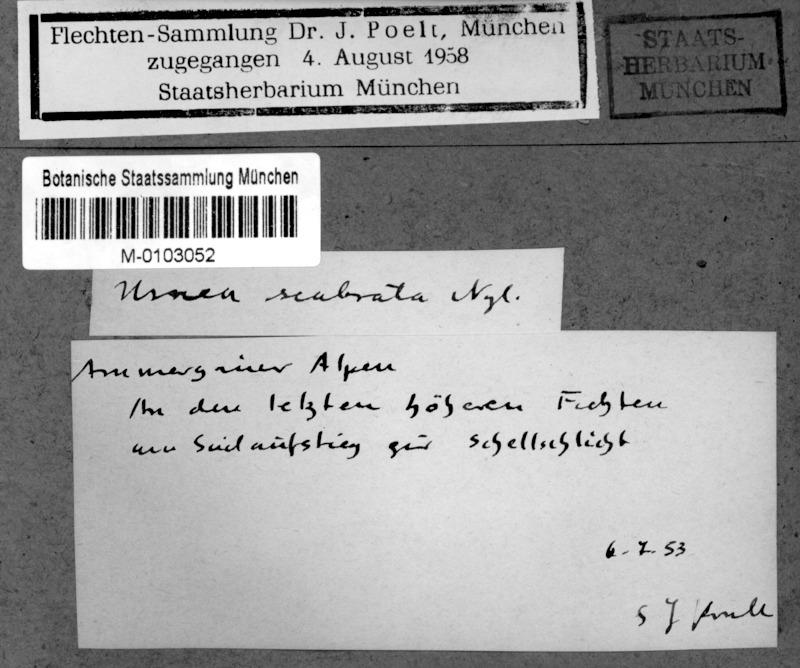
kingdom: Fungi
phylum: Ascomycota
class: Lecanoromycetes
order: Lecanorales
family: Parmeliaceae
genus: Usnea
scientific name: Usnea scabrata
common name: Straw beard lichen
